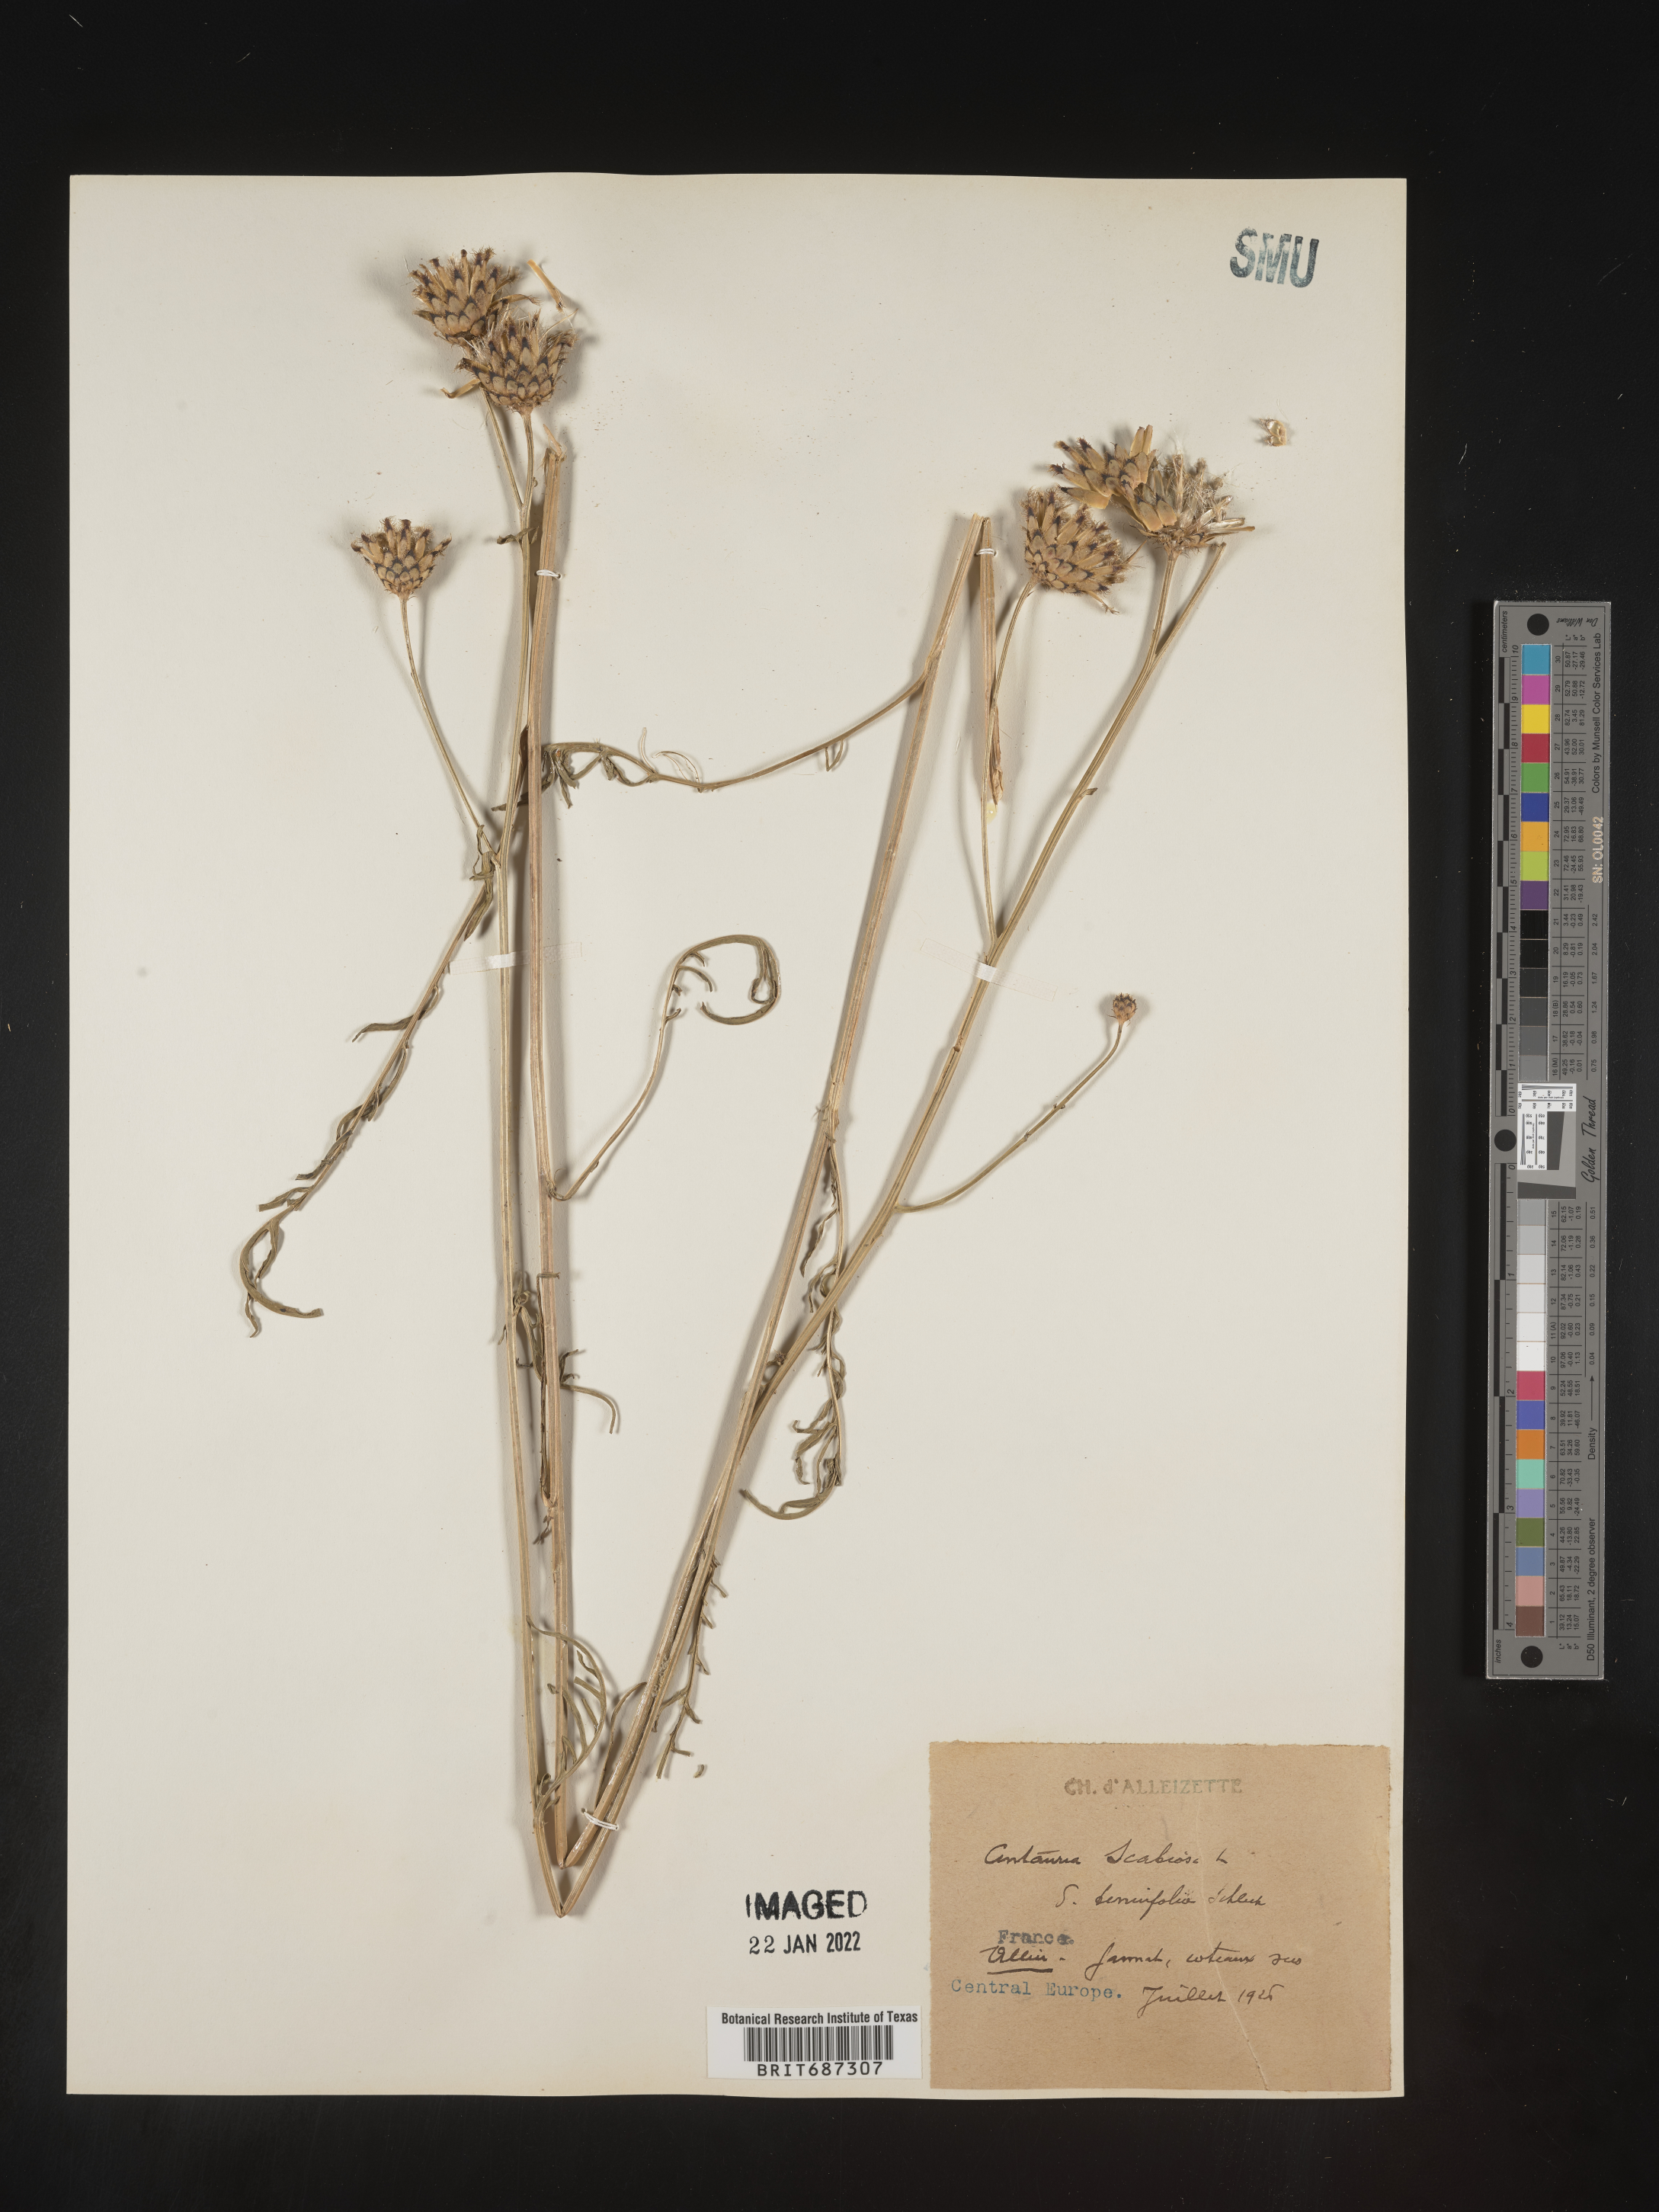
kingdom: Plantae
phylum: Tracheophyta
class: Magnoliopsida
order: Asterales
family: Asteraceae
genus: Centaurea
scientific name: Centaurea
